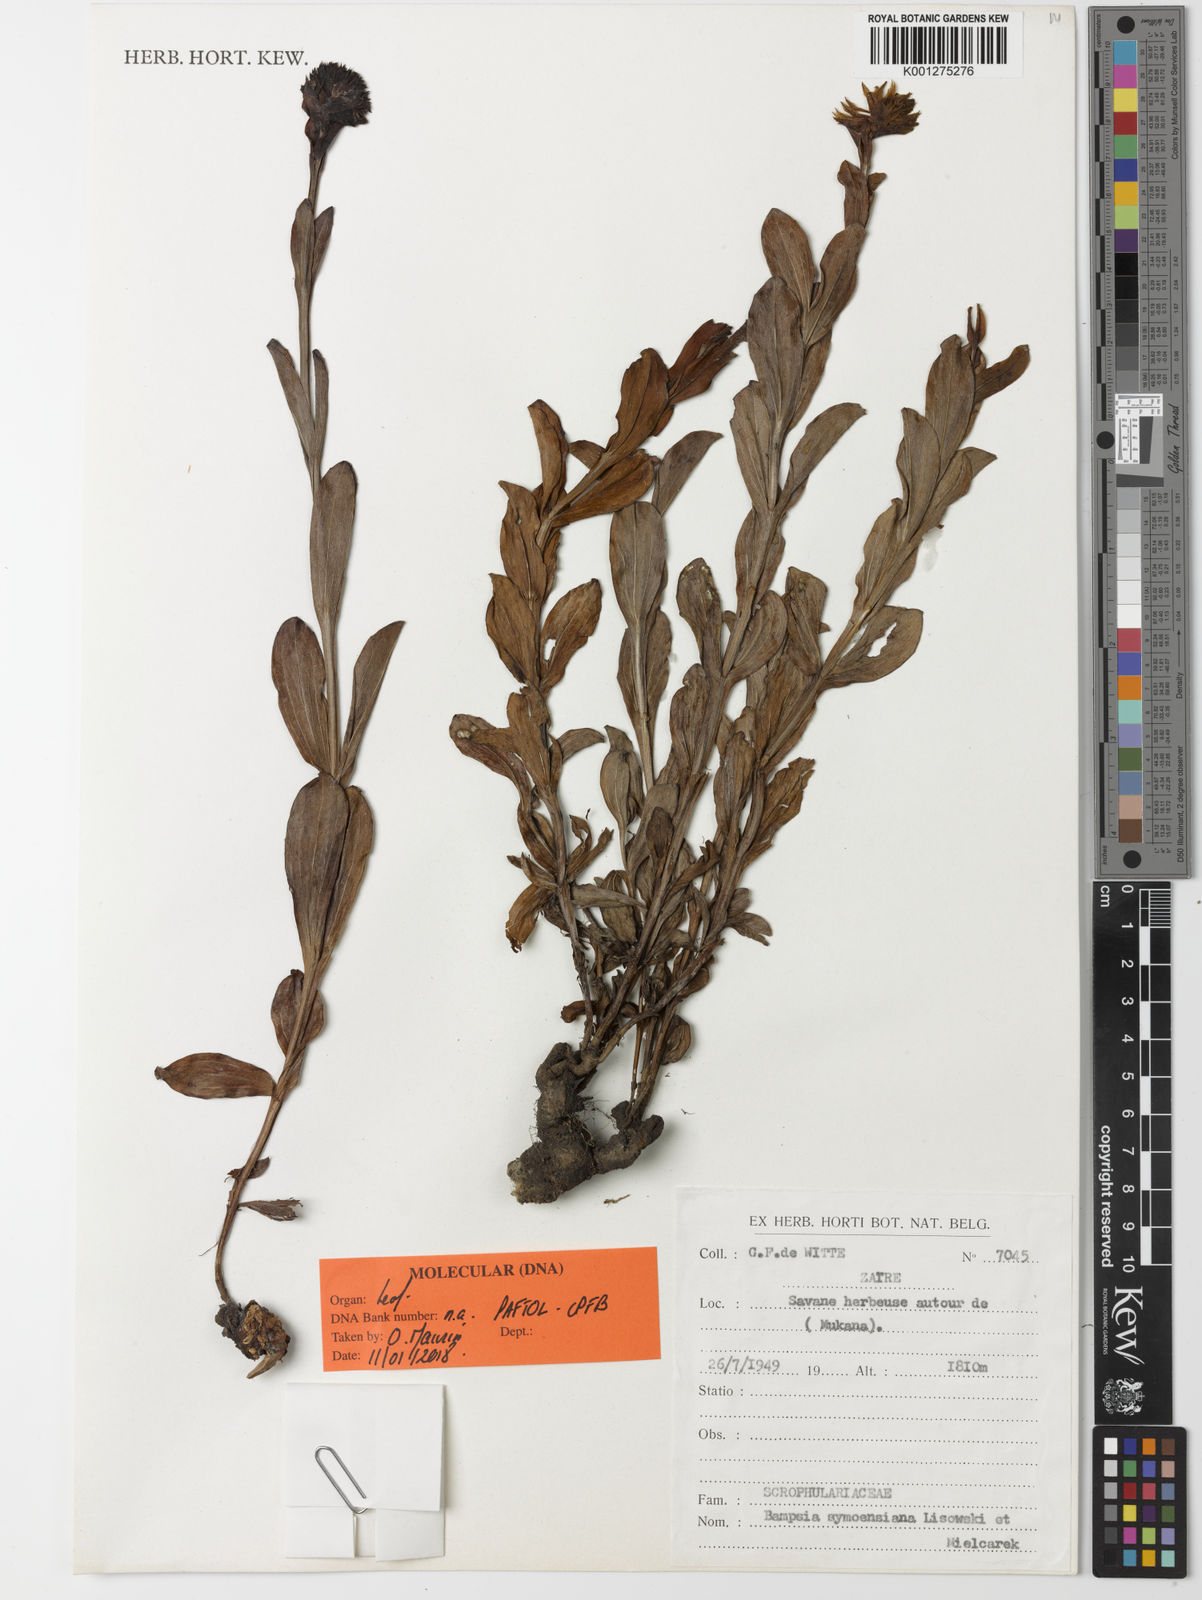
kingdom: Plantae
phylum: Tracheophyta
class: Magnoliopsida
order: Lamiales
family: Linderniaceae
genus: Bampsia
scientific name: Bampsia symoensiana
